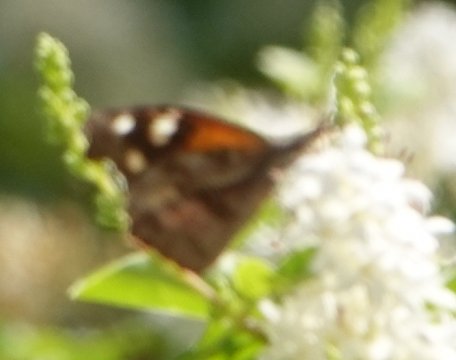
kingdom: Animalia
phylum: Arthropoda
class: Insecta
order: Lepidoptera
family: Nymphalidae
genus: Libytheana
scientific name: Libytheana carinenta
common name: American Snout
